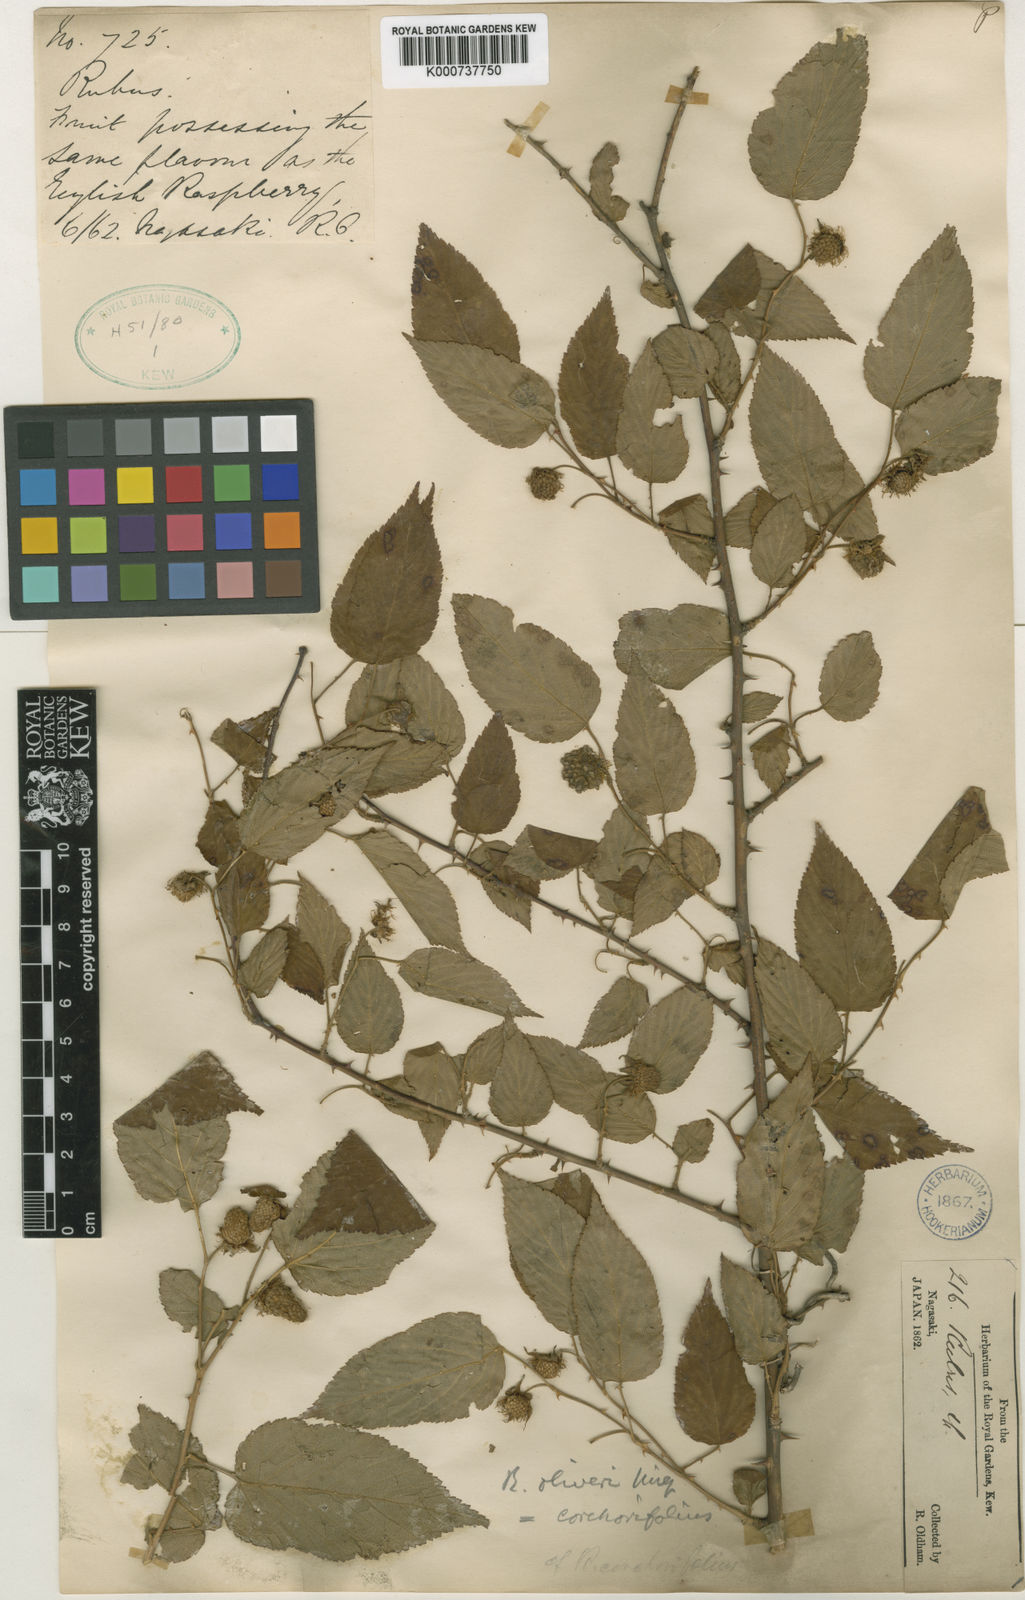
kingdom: Plantae
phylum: Tracheophyta
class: Magnoliopsida
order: Rosales
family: Rosaceae
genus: Rubus
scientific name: Rubus corchorifolius
